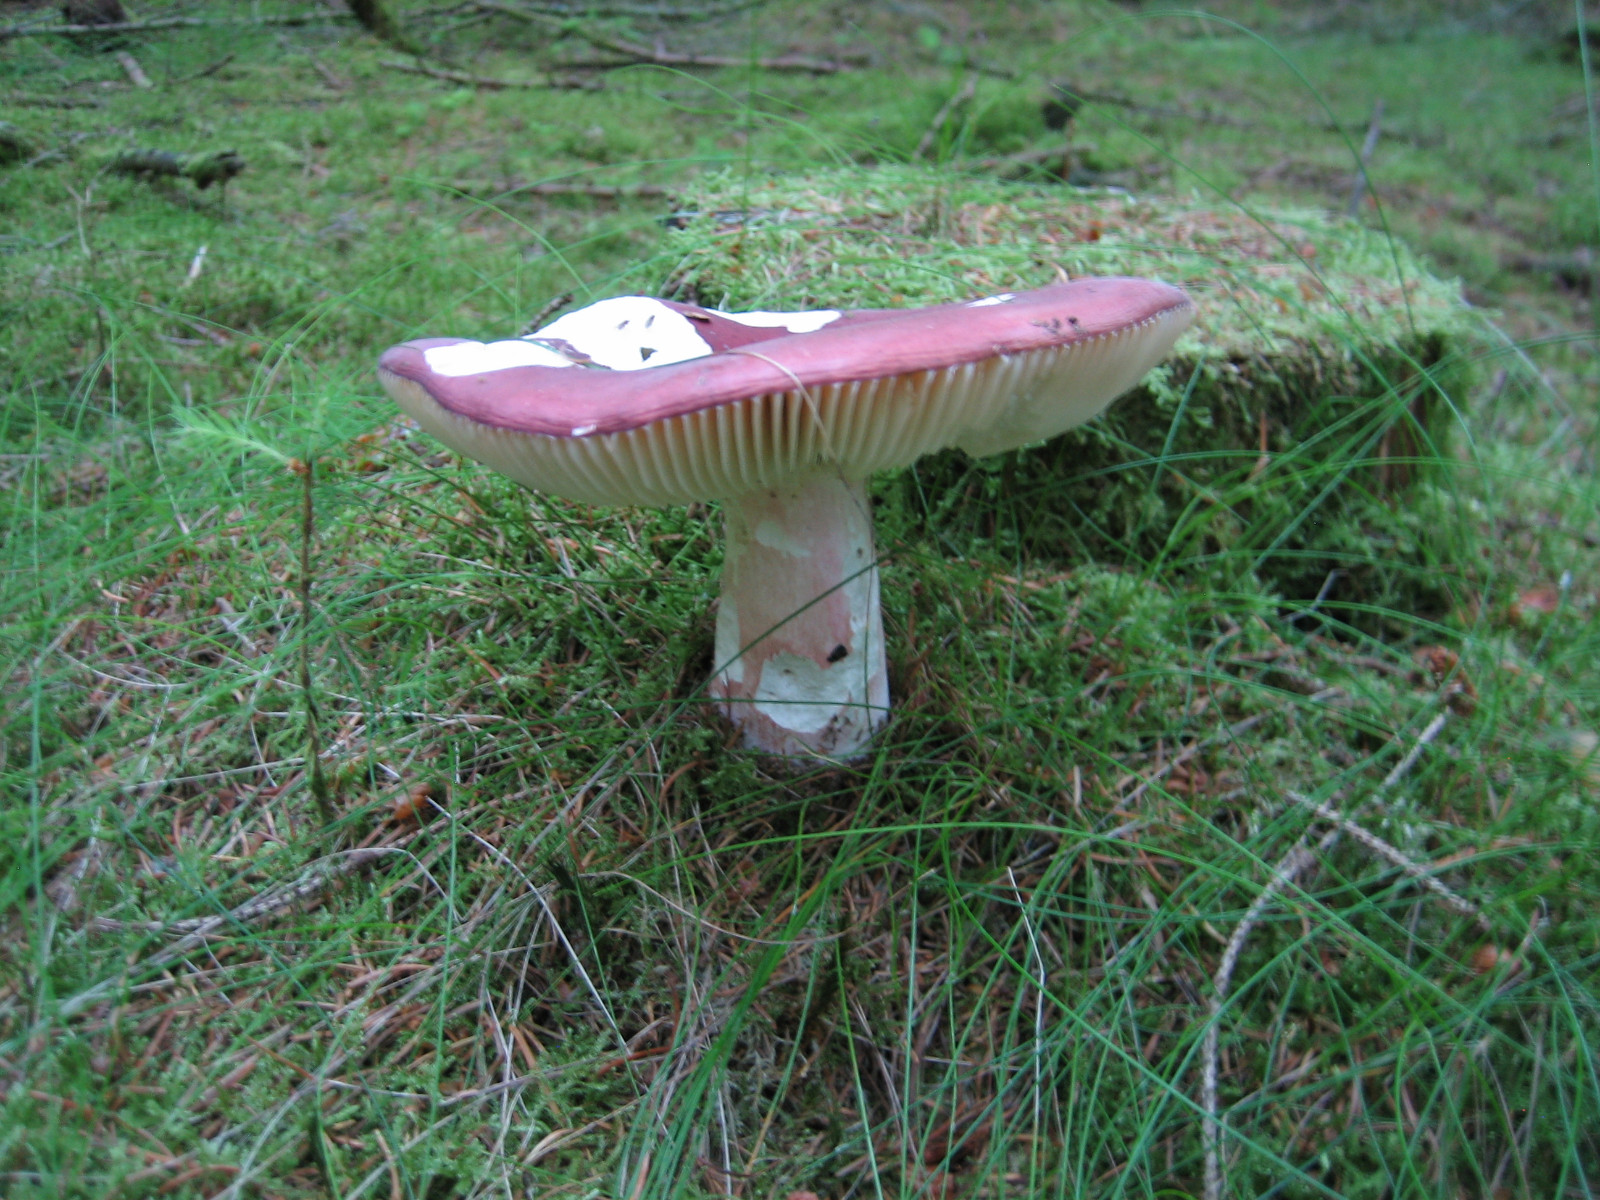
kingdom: Fungi
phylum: Basidiomycota
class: Agaricomycetes
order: Russulales
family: Russulaceae
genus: Russula
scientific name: Russula paludosa
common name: prægtig skørhat
